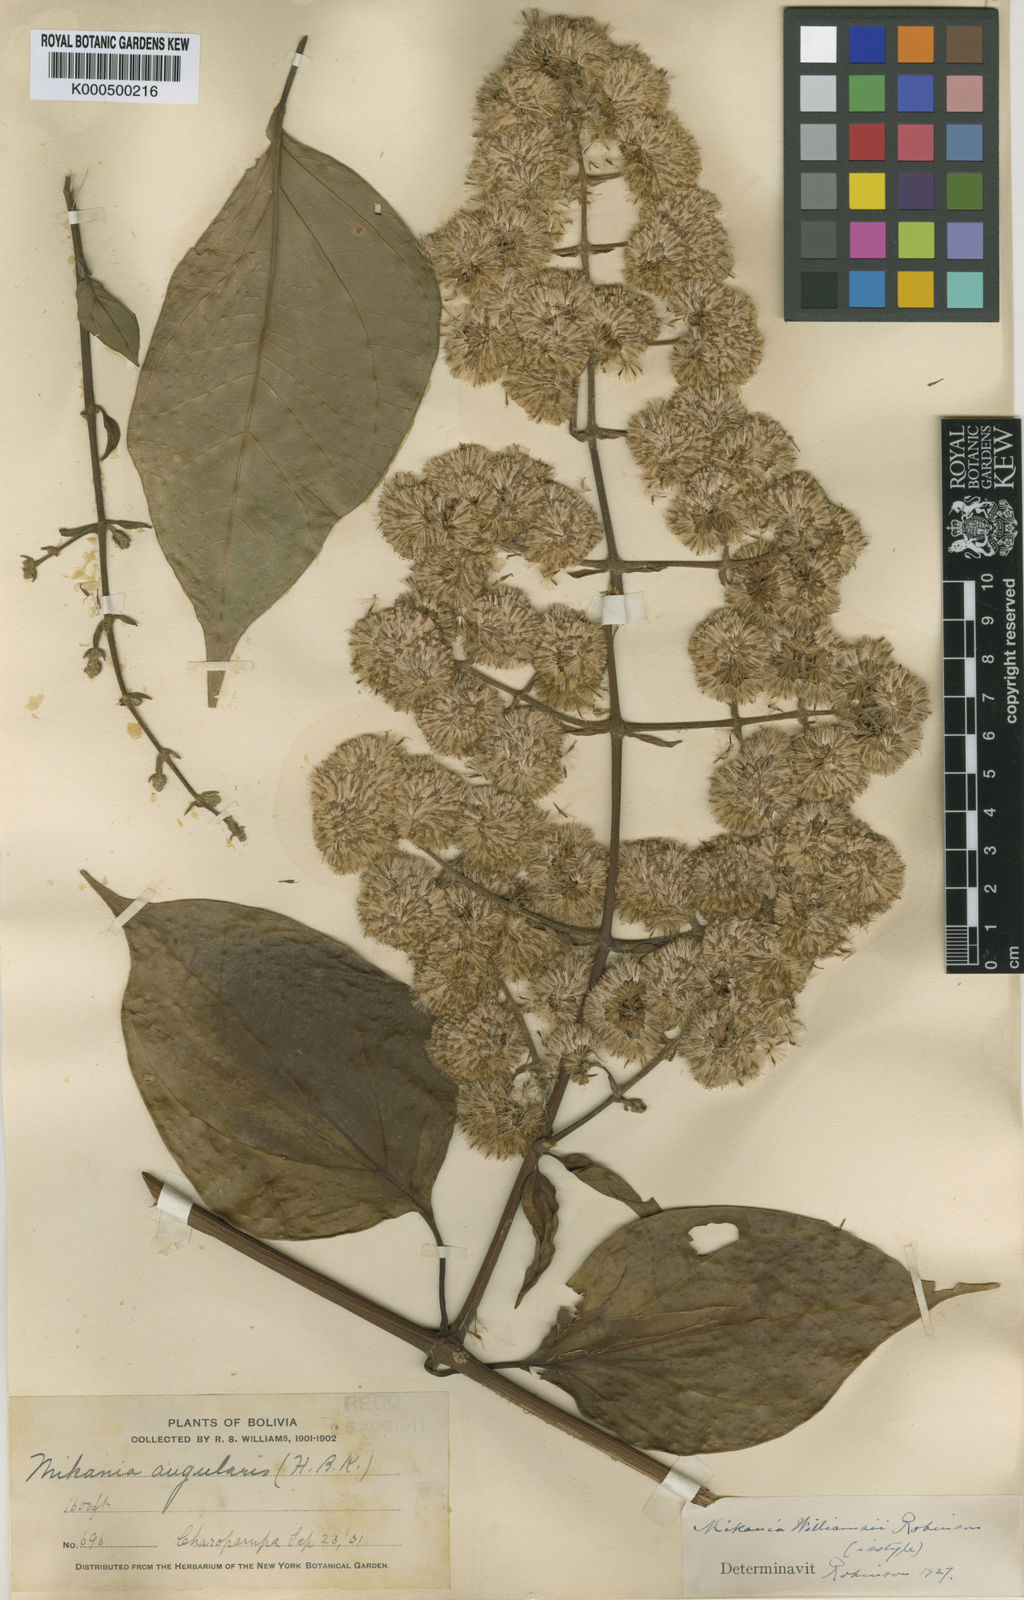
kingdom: Plantae
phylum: Tracheophyta
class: Magnoliopsida
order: Asterales
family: Asteraceae
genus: Mikania
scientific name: Mikania williamsii
